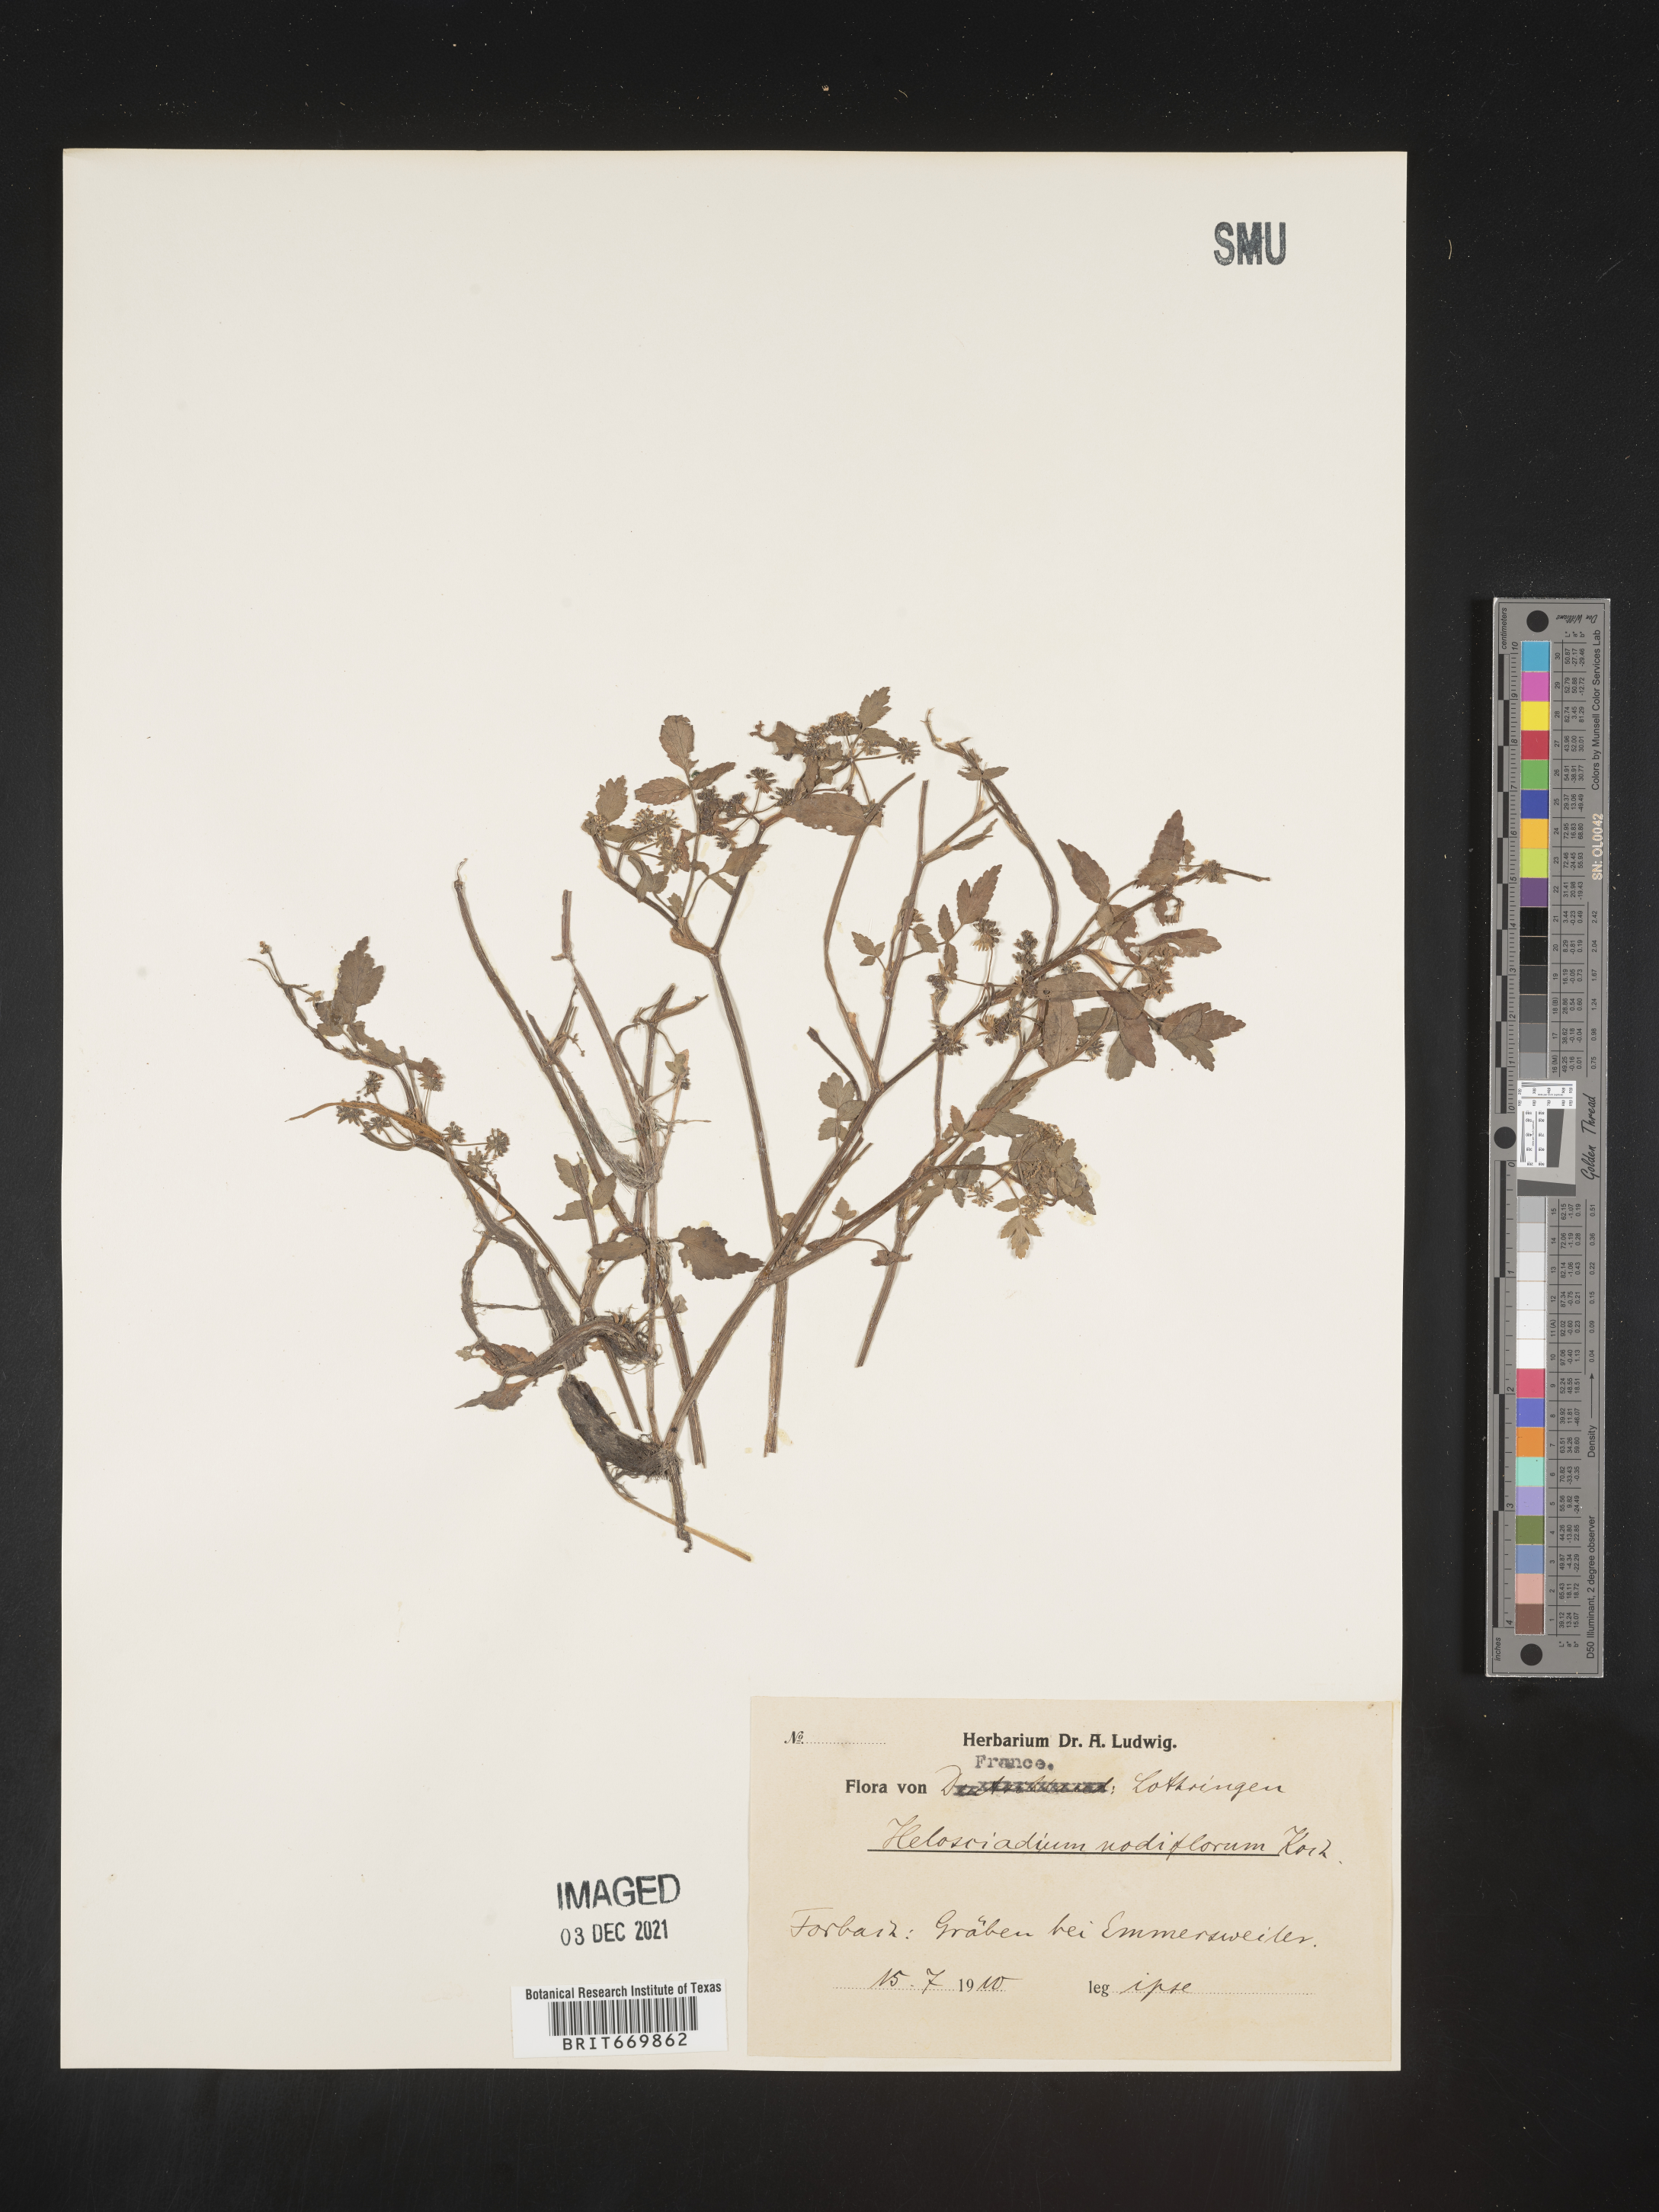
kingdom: Plantae
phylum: Tracheophyta
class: Magnoliopsida
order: Apiales
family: Apiaceae
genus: Helosciadium
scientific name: Helosciadium
